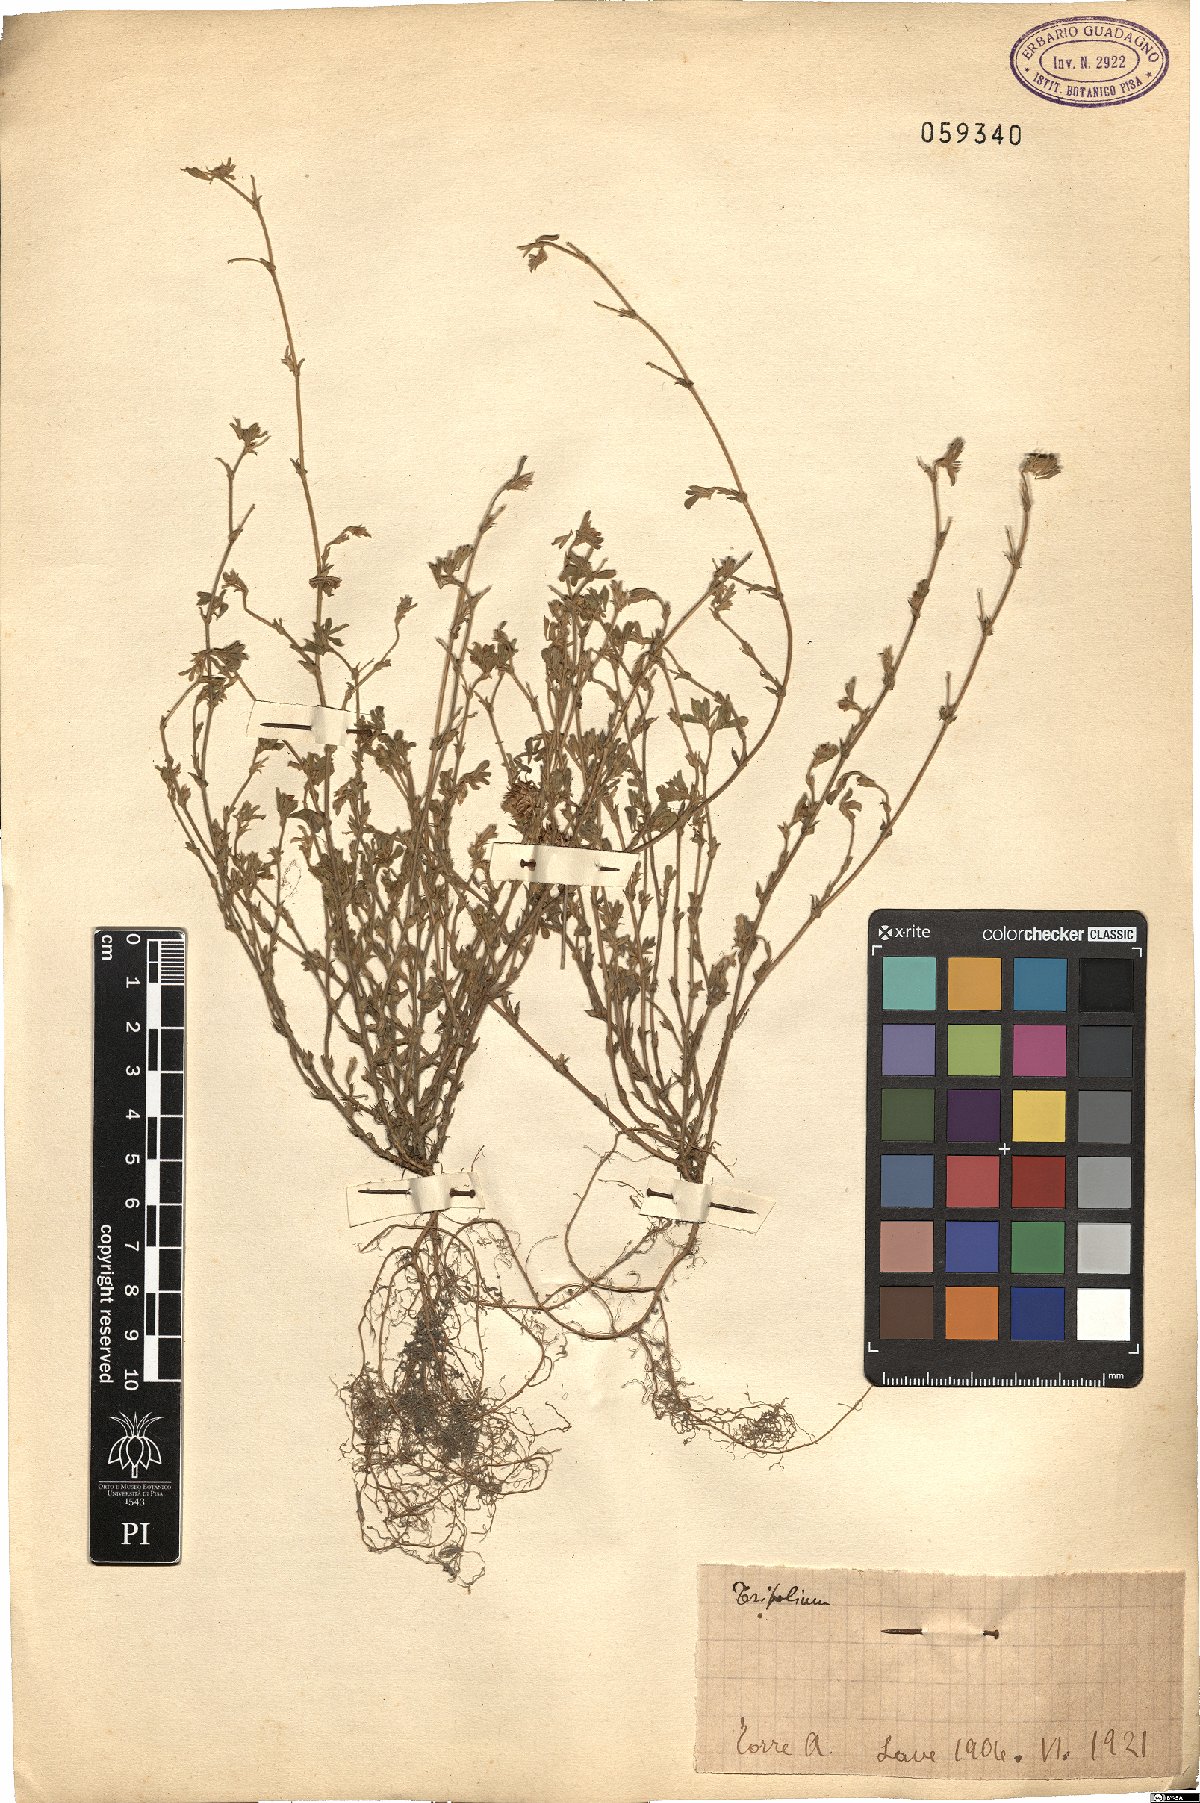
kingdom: Plantae
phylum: Tracheophyta
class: Magnoliopsida
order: Fabales
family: Fabaceae
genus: Trifolium
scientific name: Trifolium
